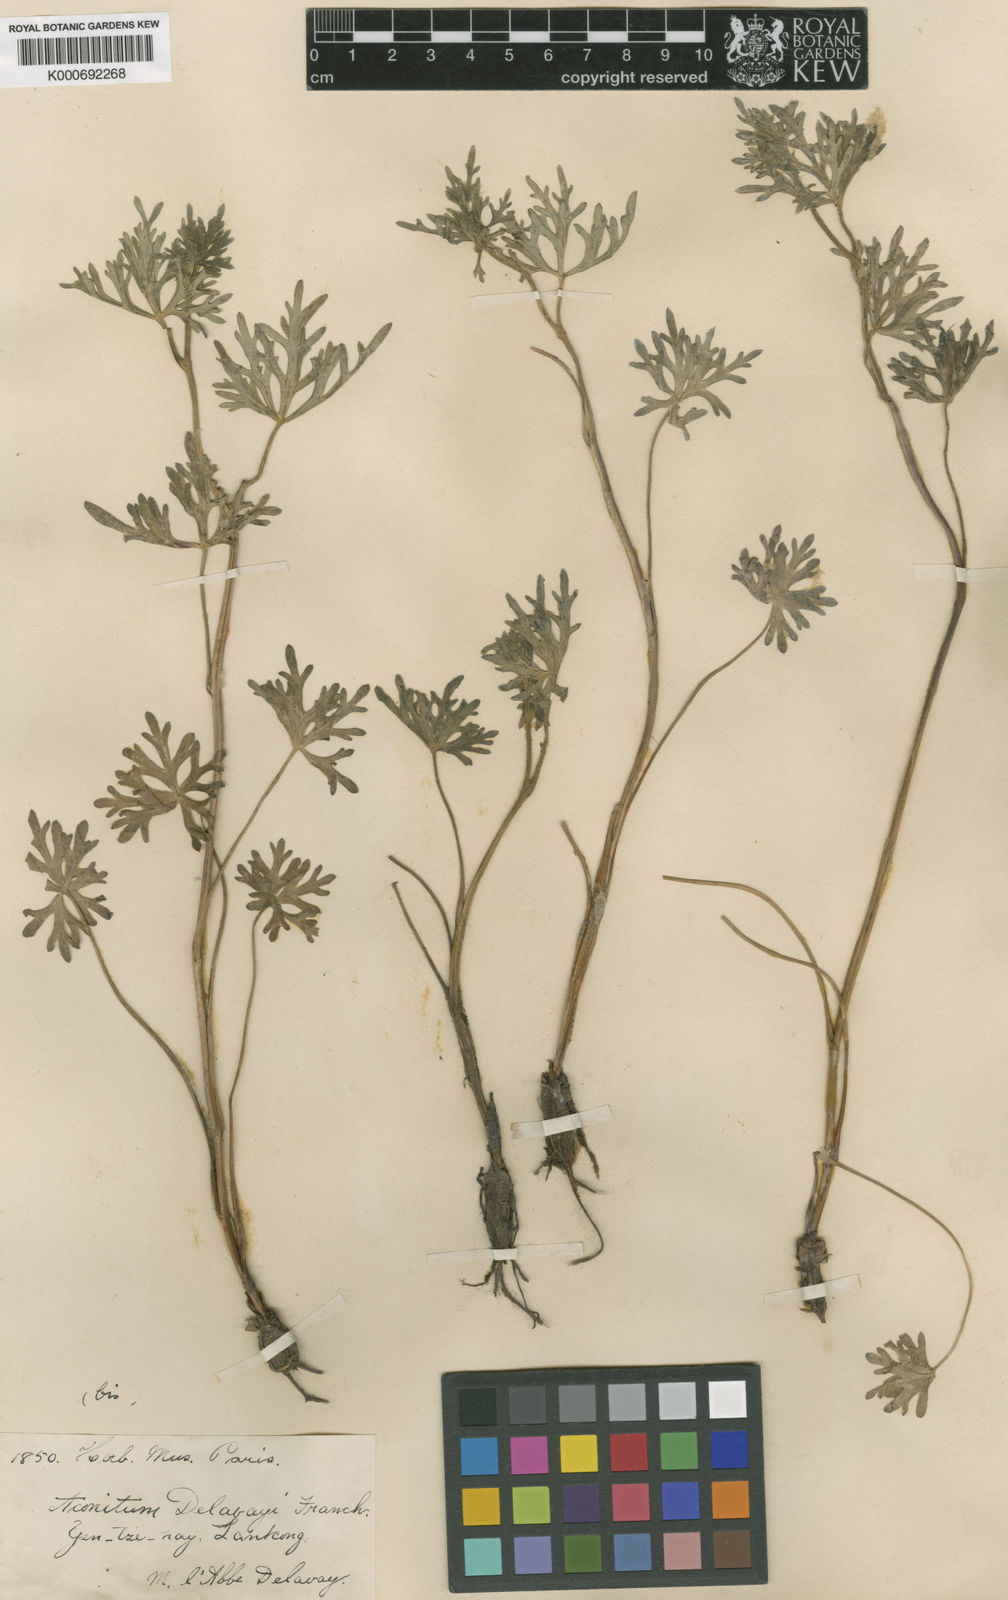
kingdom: Plantae
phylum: Tracheophyta
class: Magnoliopsida
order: Ranunculales
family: Ranunculaceae
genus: Aconitum
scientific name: Aconitum delavayi
